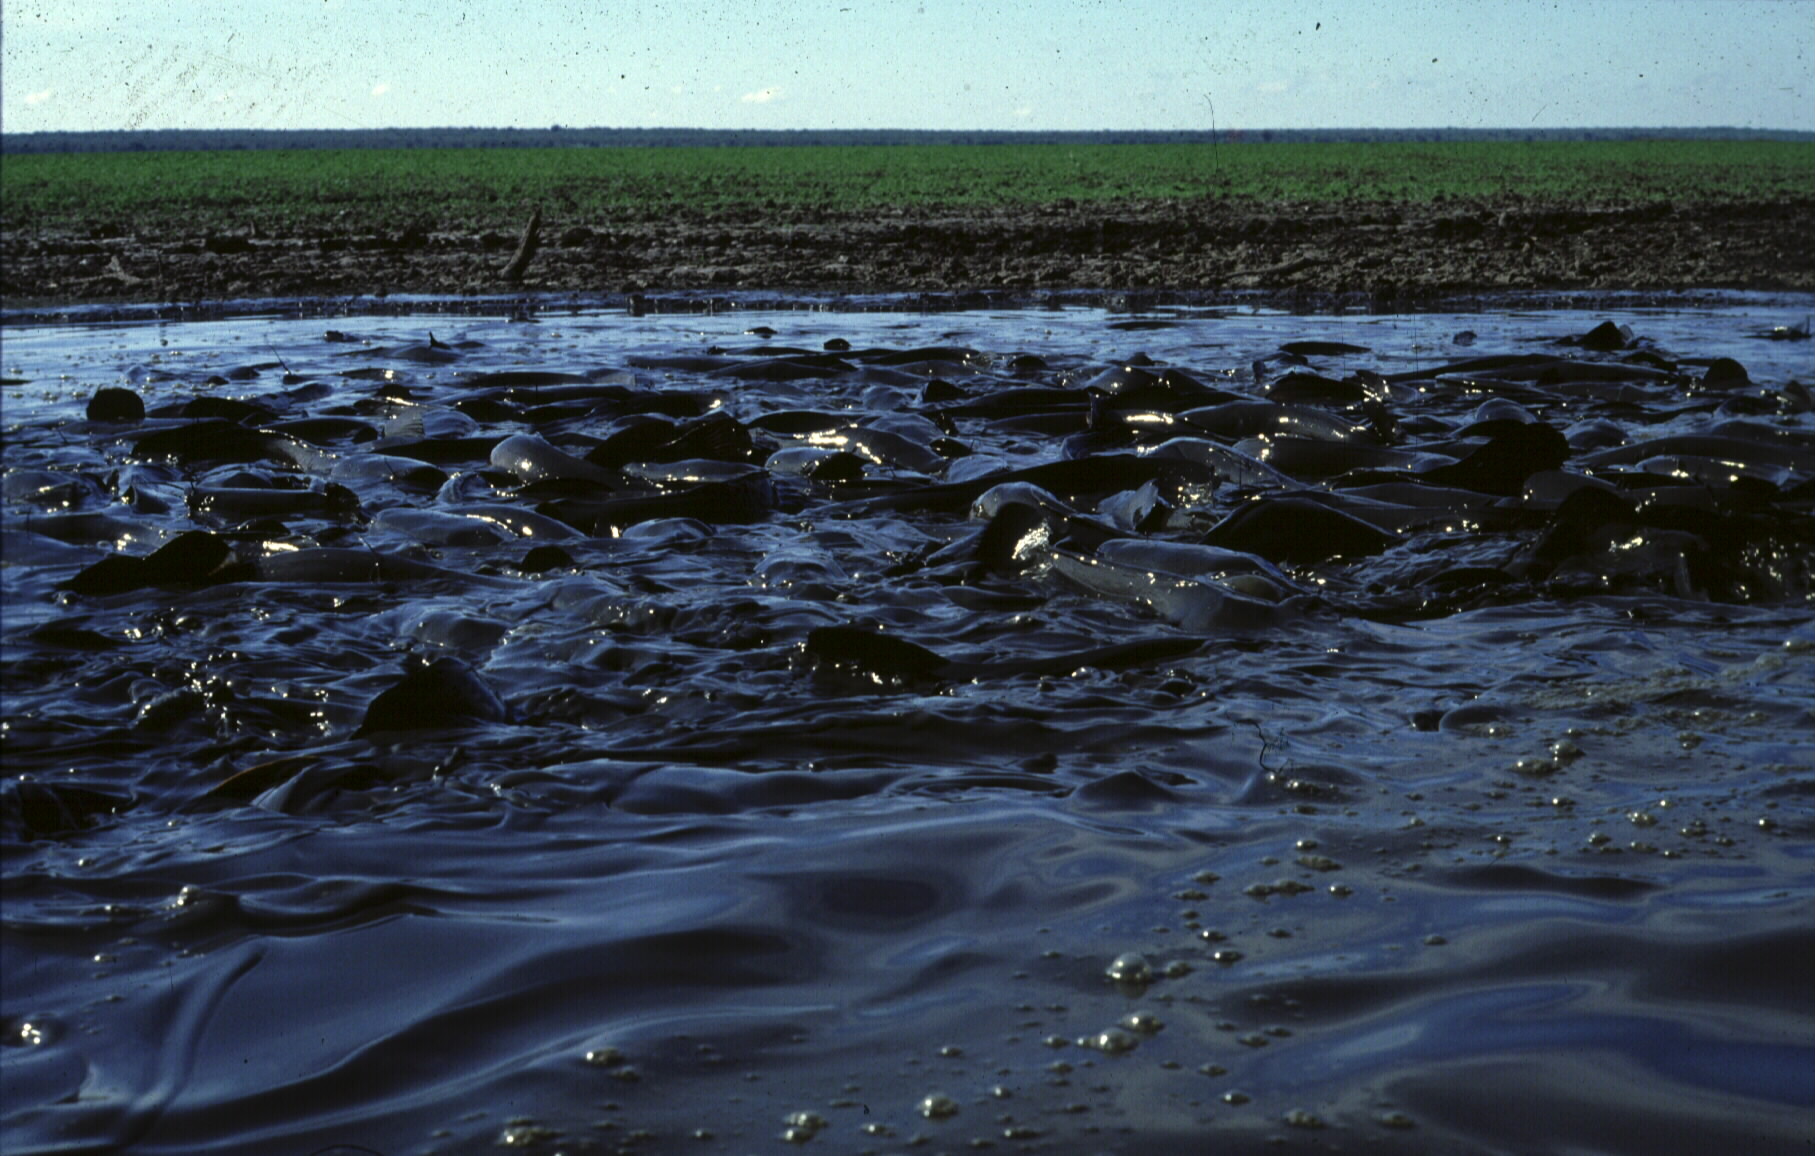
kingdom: Animalia
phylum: Chordata
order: Siluriformes
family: Clariidae
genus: Clarias
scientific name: Clarias
